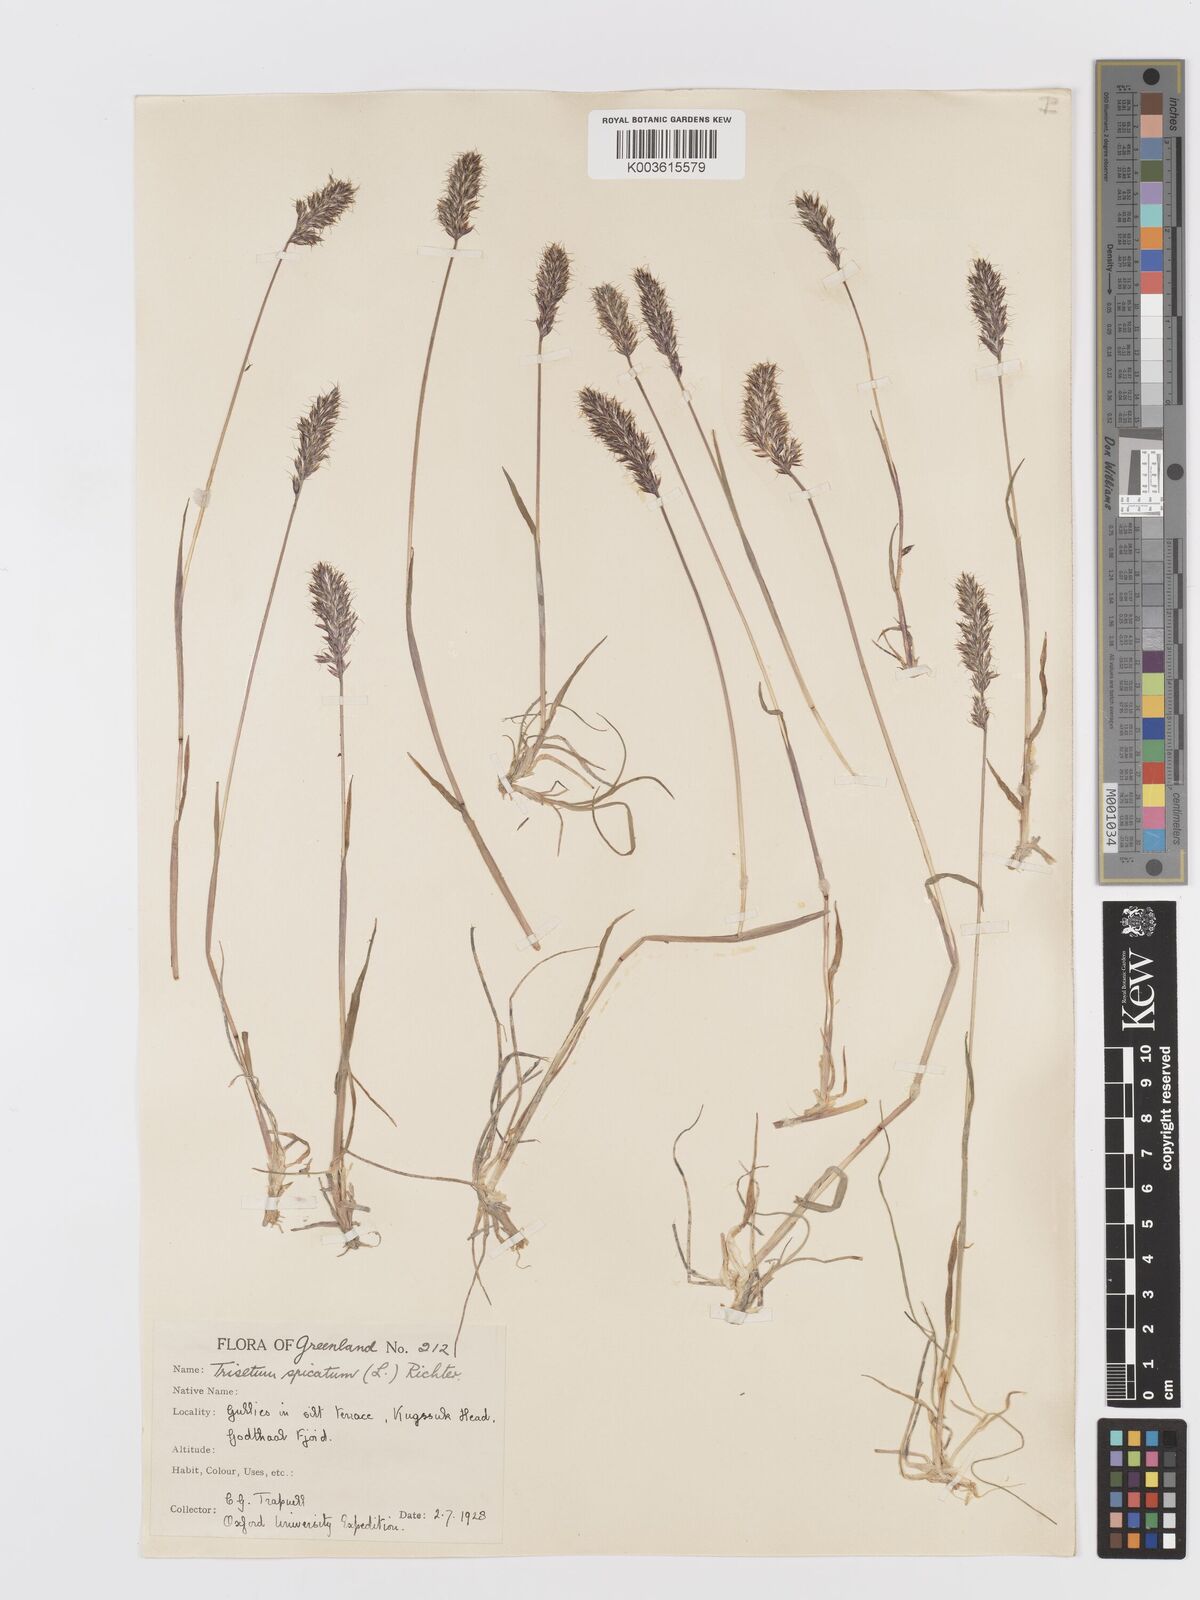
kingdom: Plantae
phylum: Tracheophyta
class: Liliopsida
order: Poales
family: Poaceae
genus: Koeleria
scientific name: Koeleria spicata
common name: Mountain trisetum
